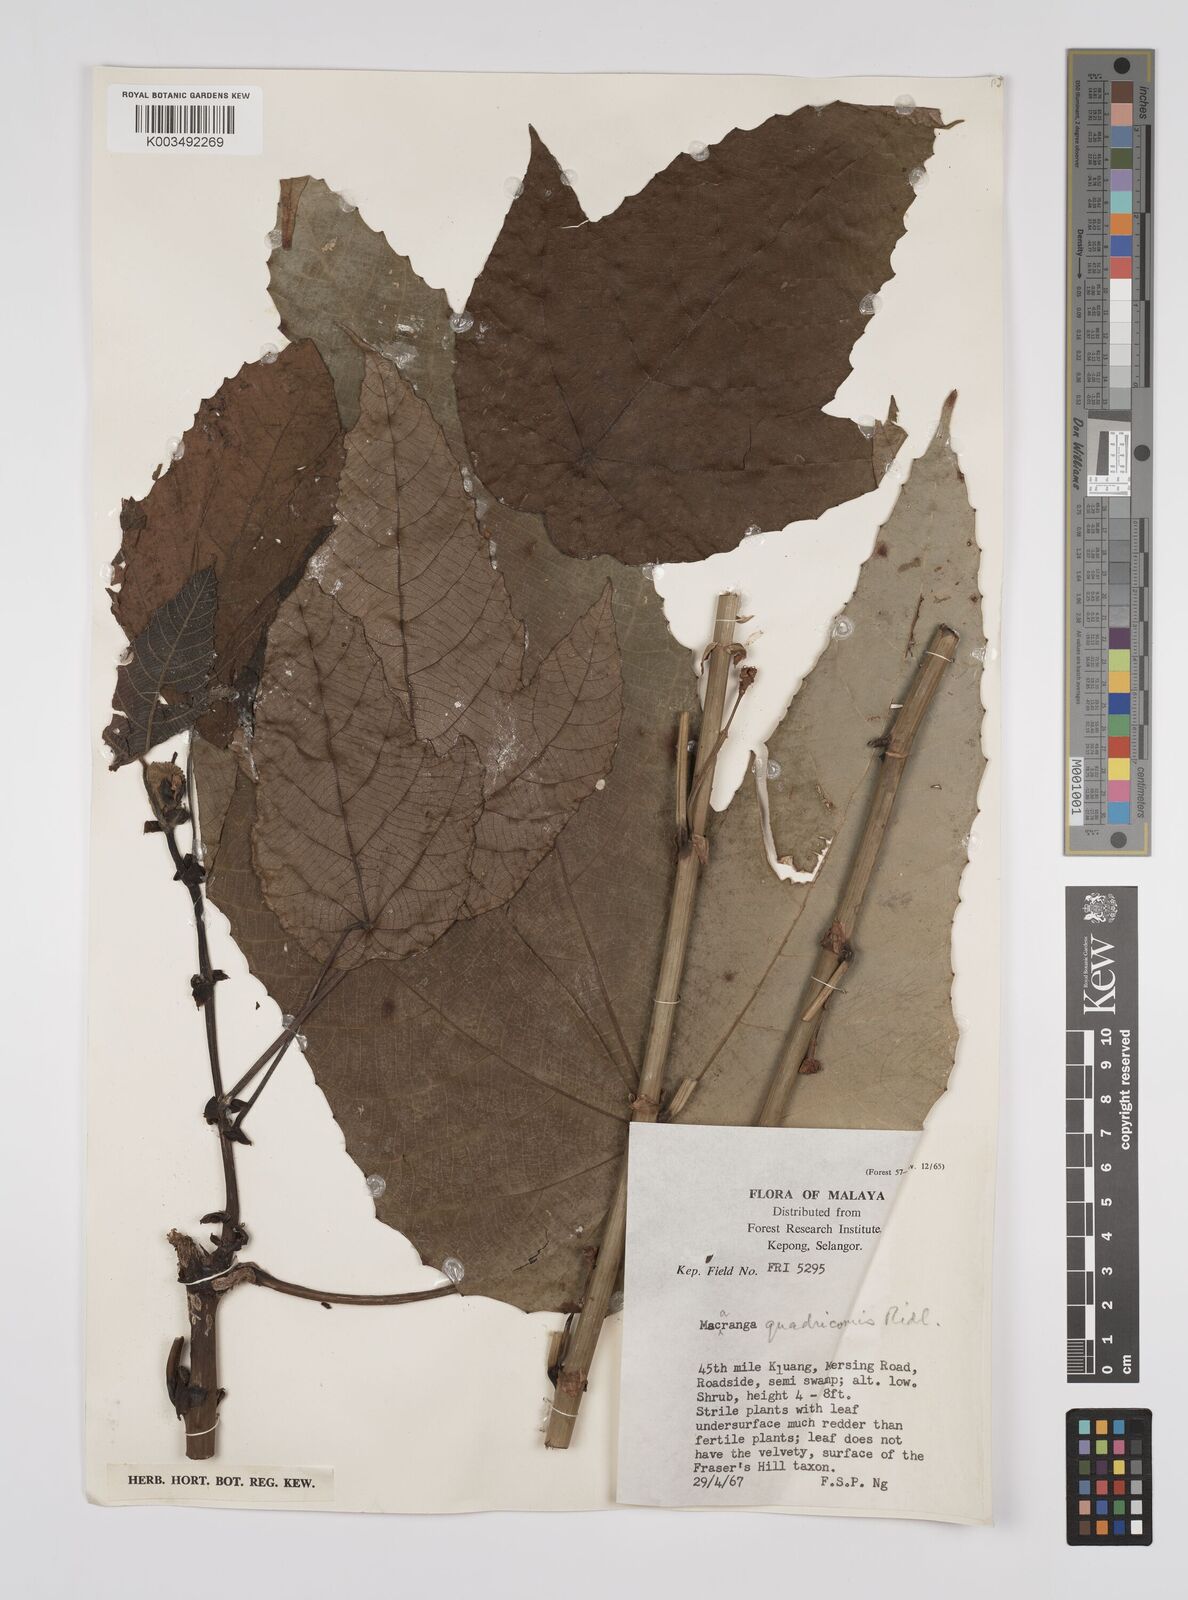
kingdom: Plantae
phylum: Tracheophyta
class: Magnoliopsida
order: Malpighiales
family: Euphorbiaceae
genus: Macaranga
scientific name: Macaranga triloba
